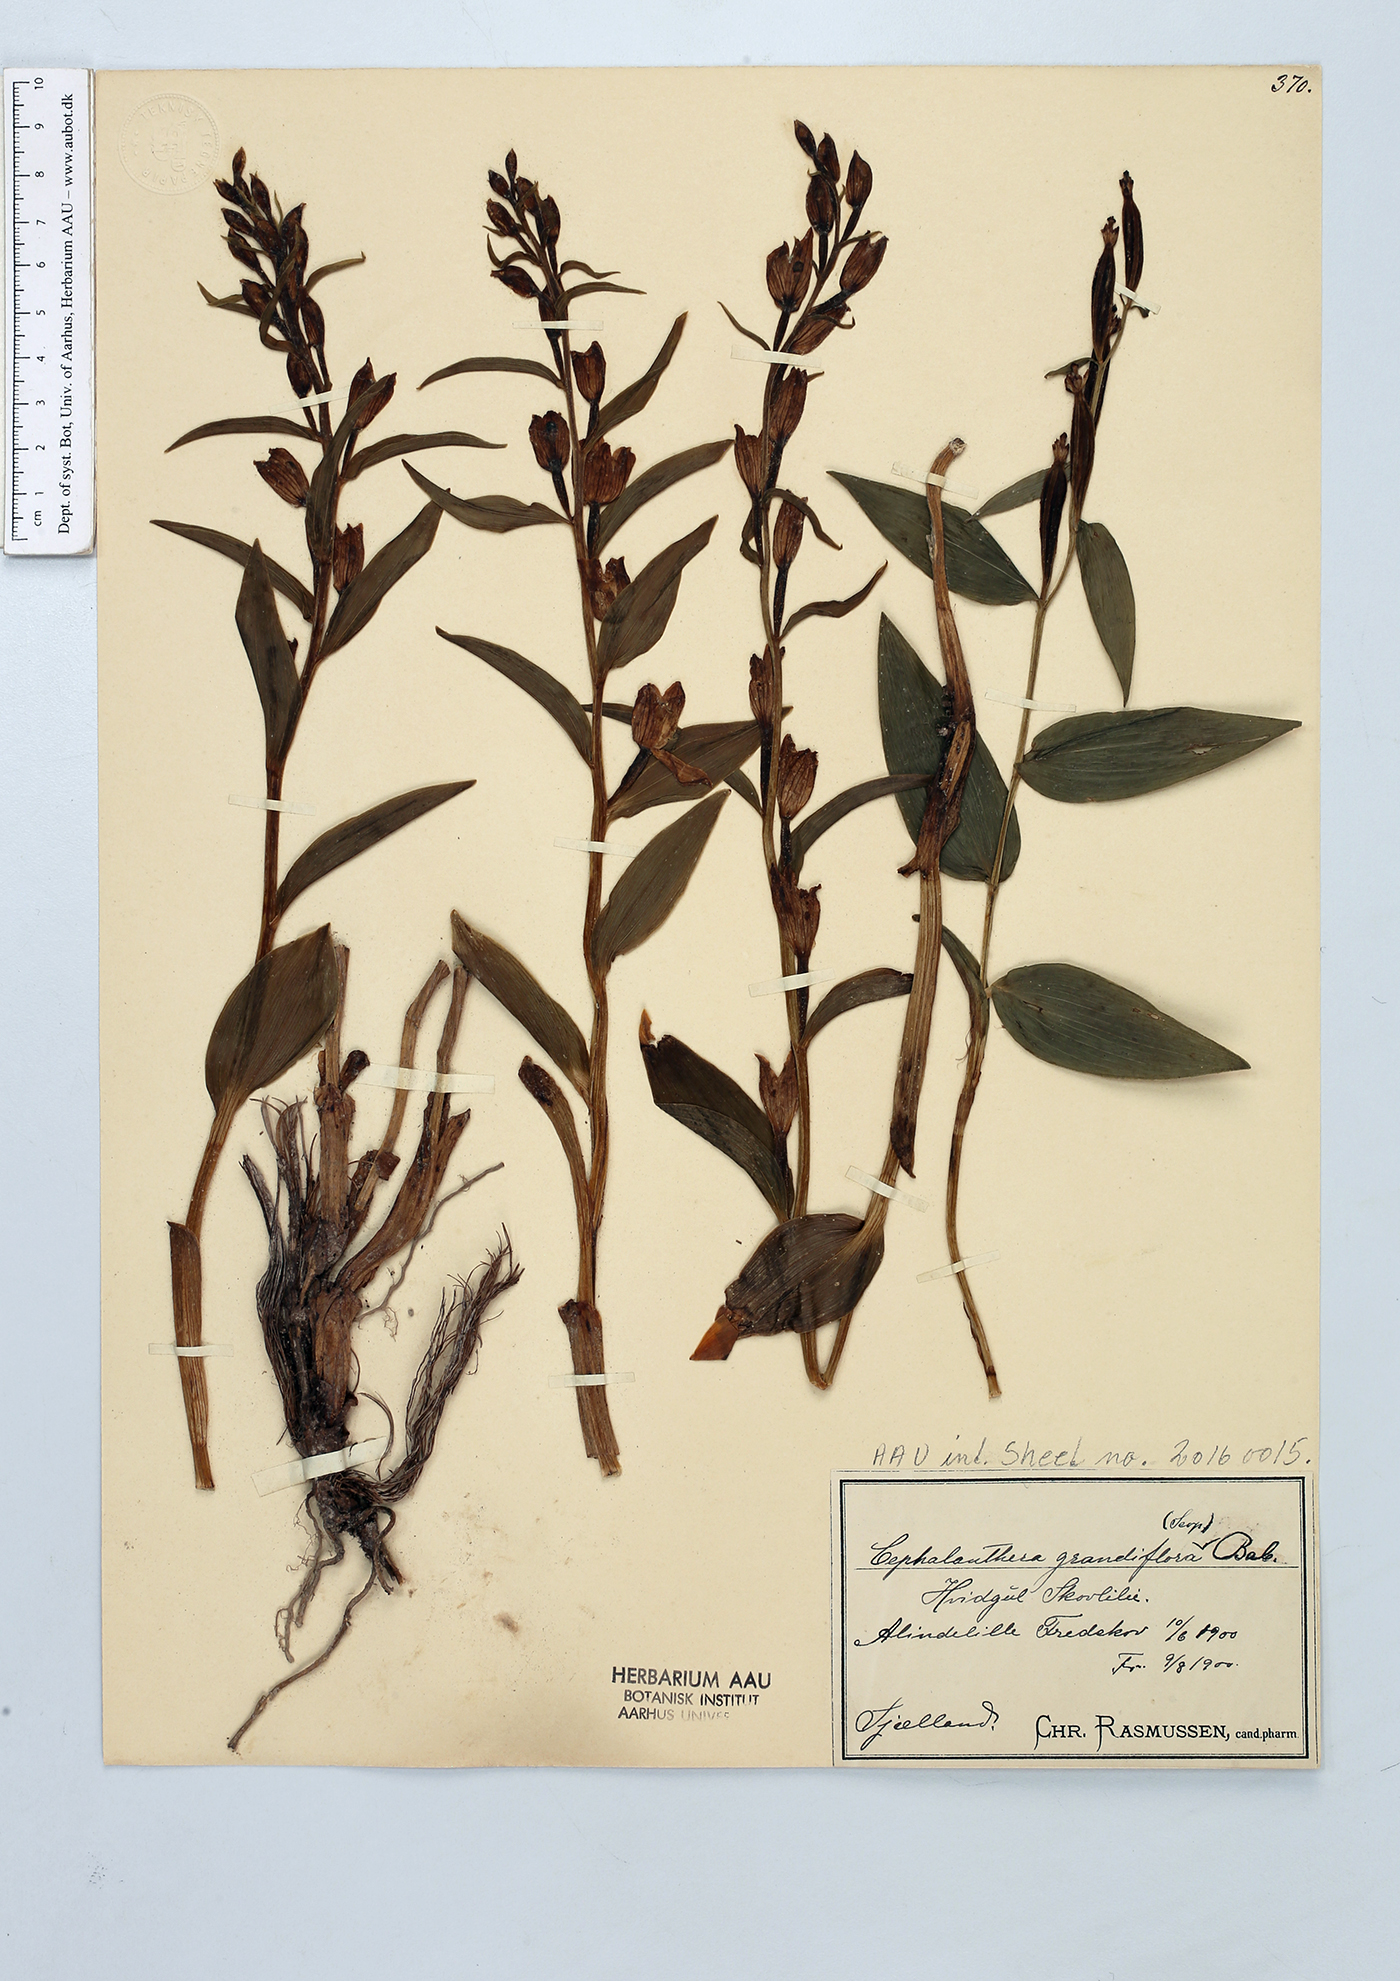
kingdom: Plantae
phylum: Tracheophyta
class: Liliopsida
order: Asparagales
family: Orchidaceae
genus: Cephalanthera
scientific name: Cephalanthera damasonium
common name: White helleborine
